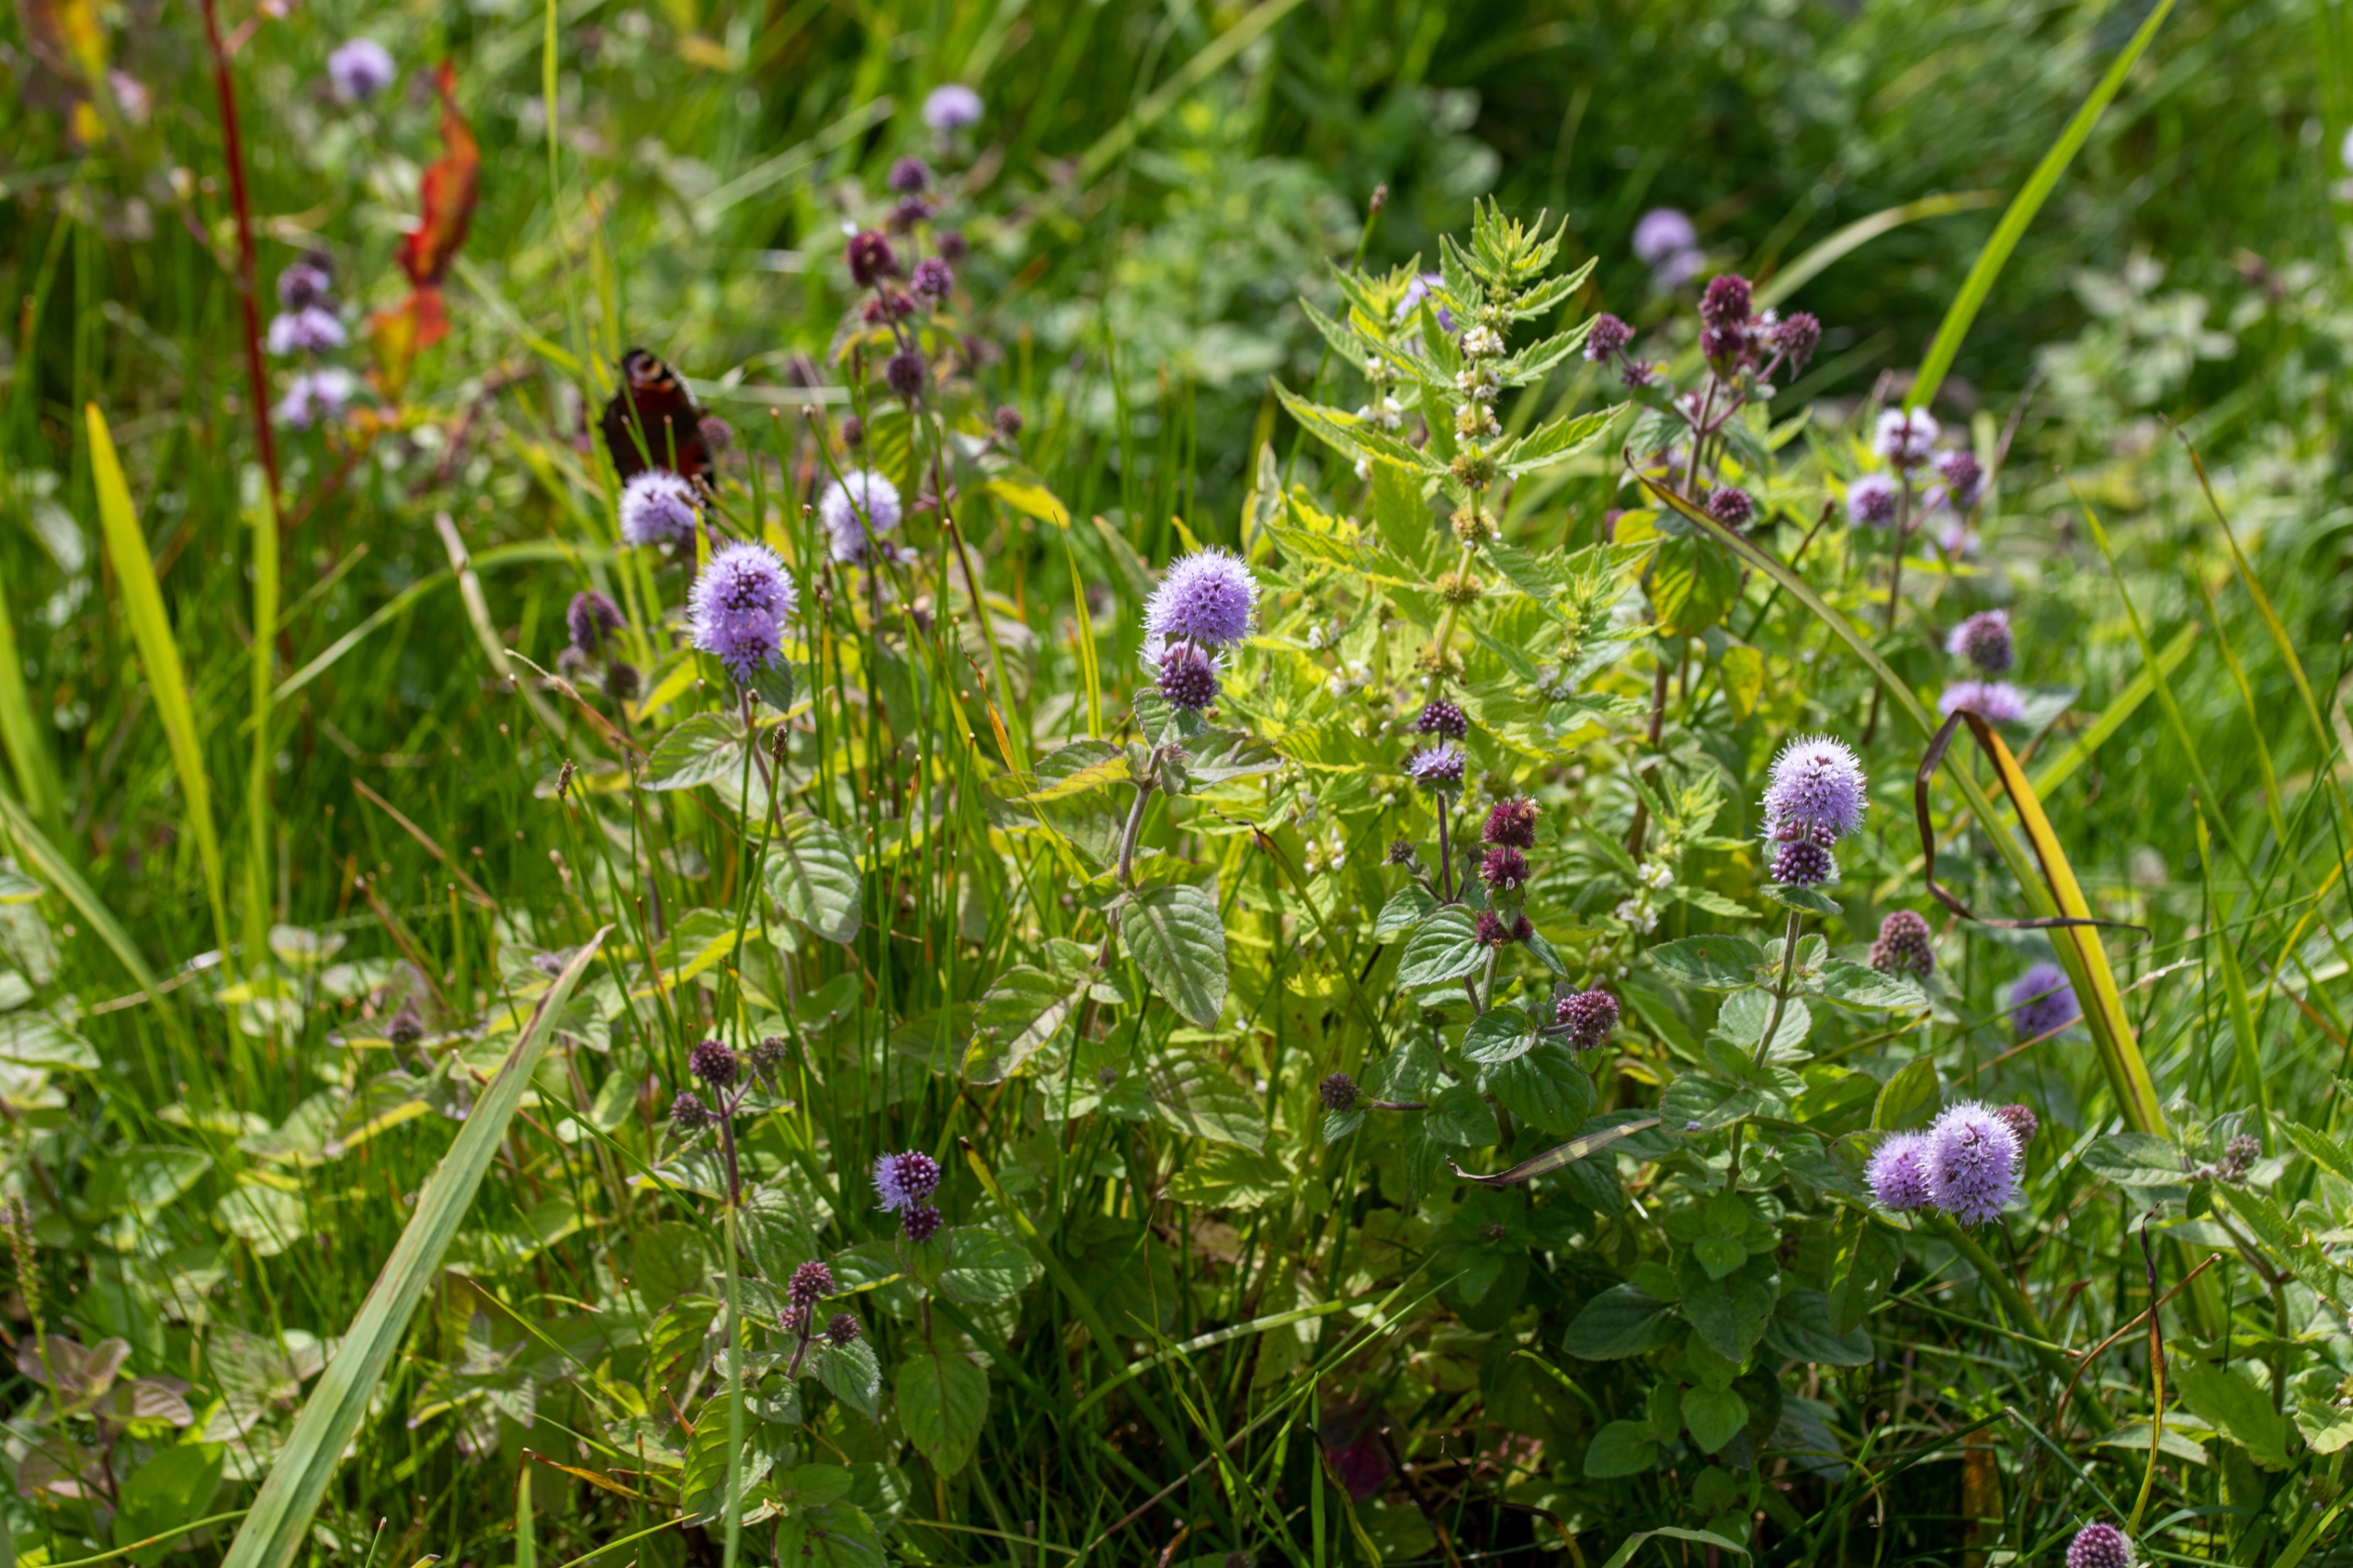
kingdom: Plantae
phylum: Tracheophyta
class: Magnoliopsida
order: Lamiales
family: Lamiaceae
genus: Mentha
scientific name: Mentha aquatica
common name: Vand-mynte
